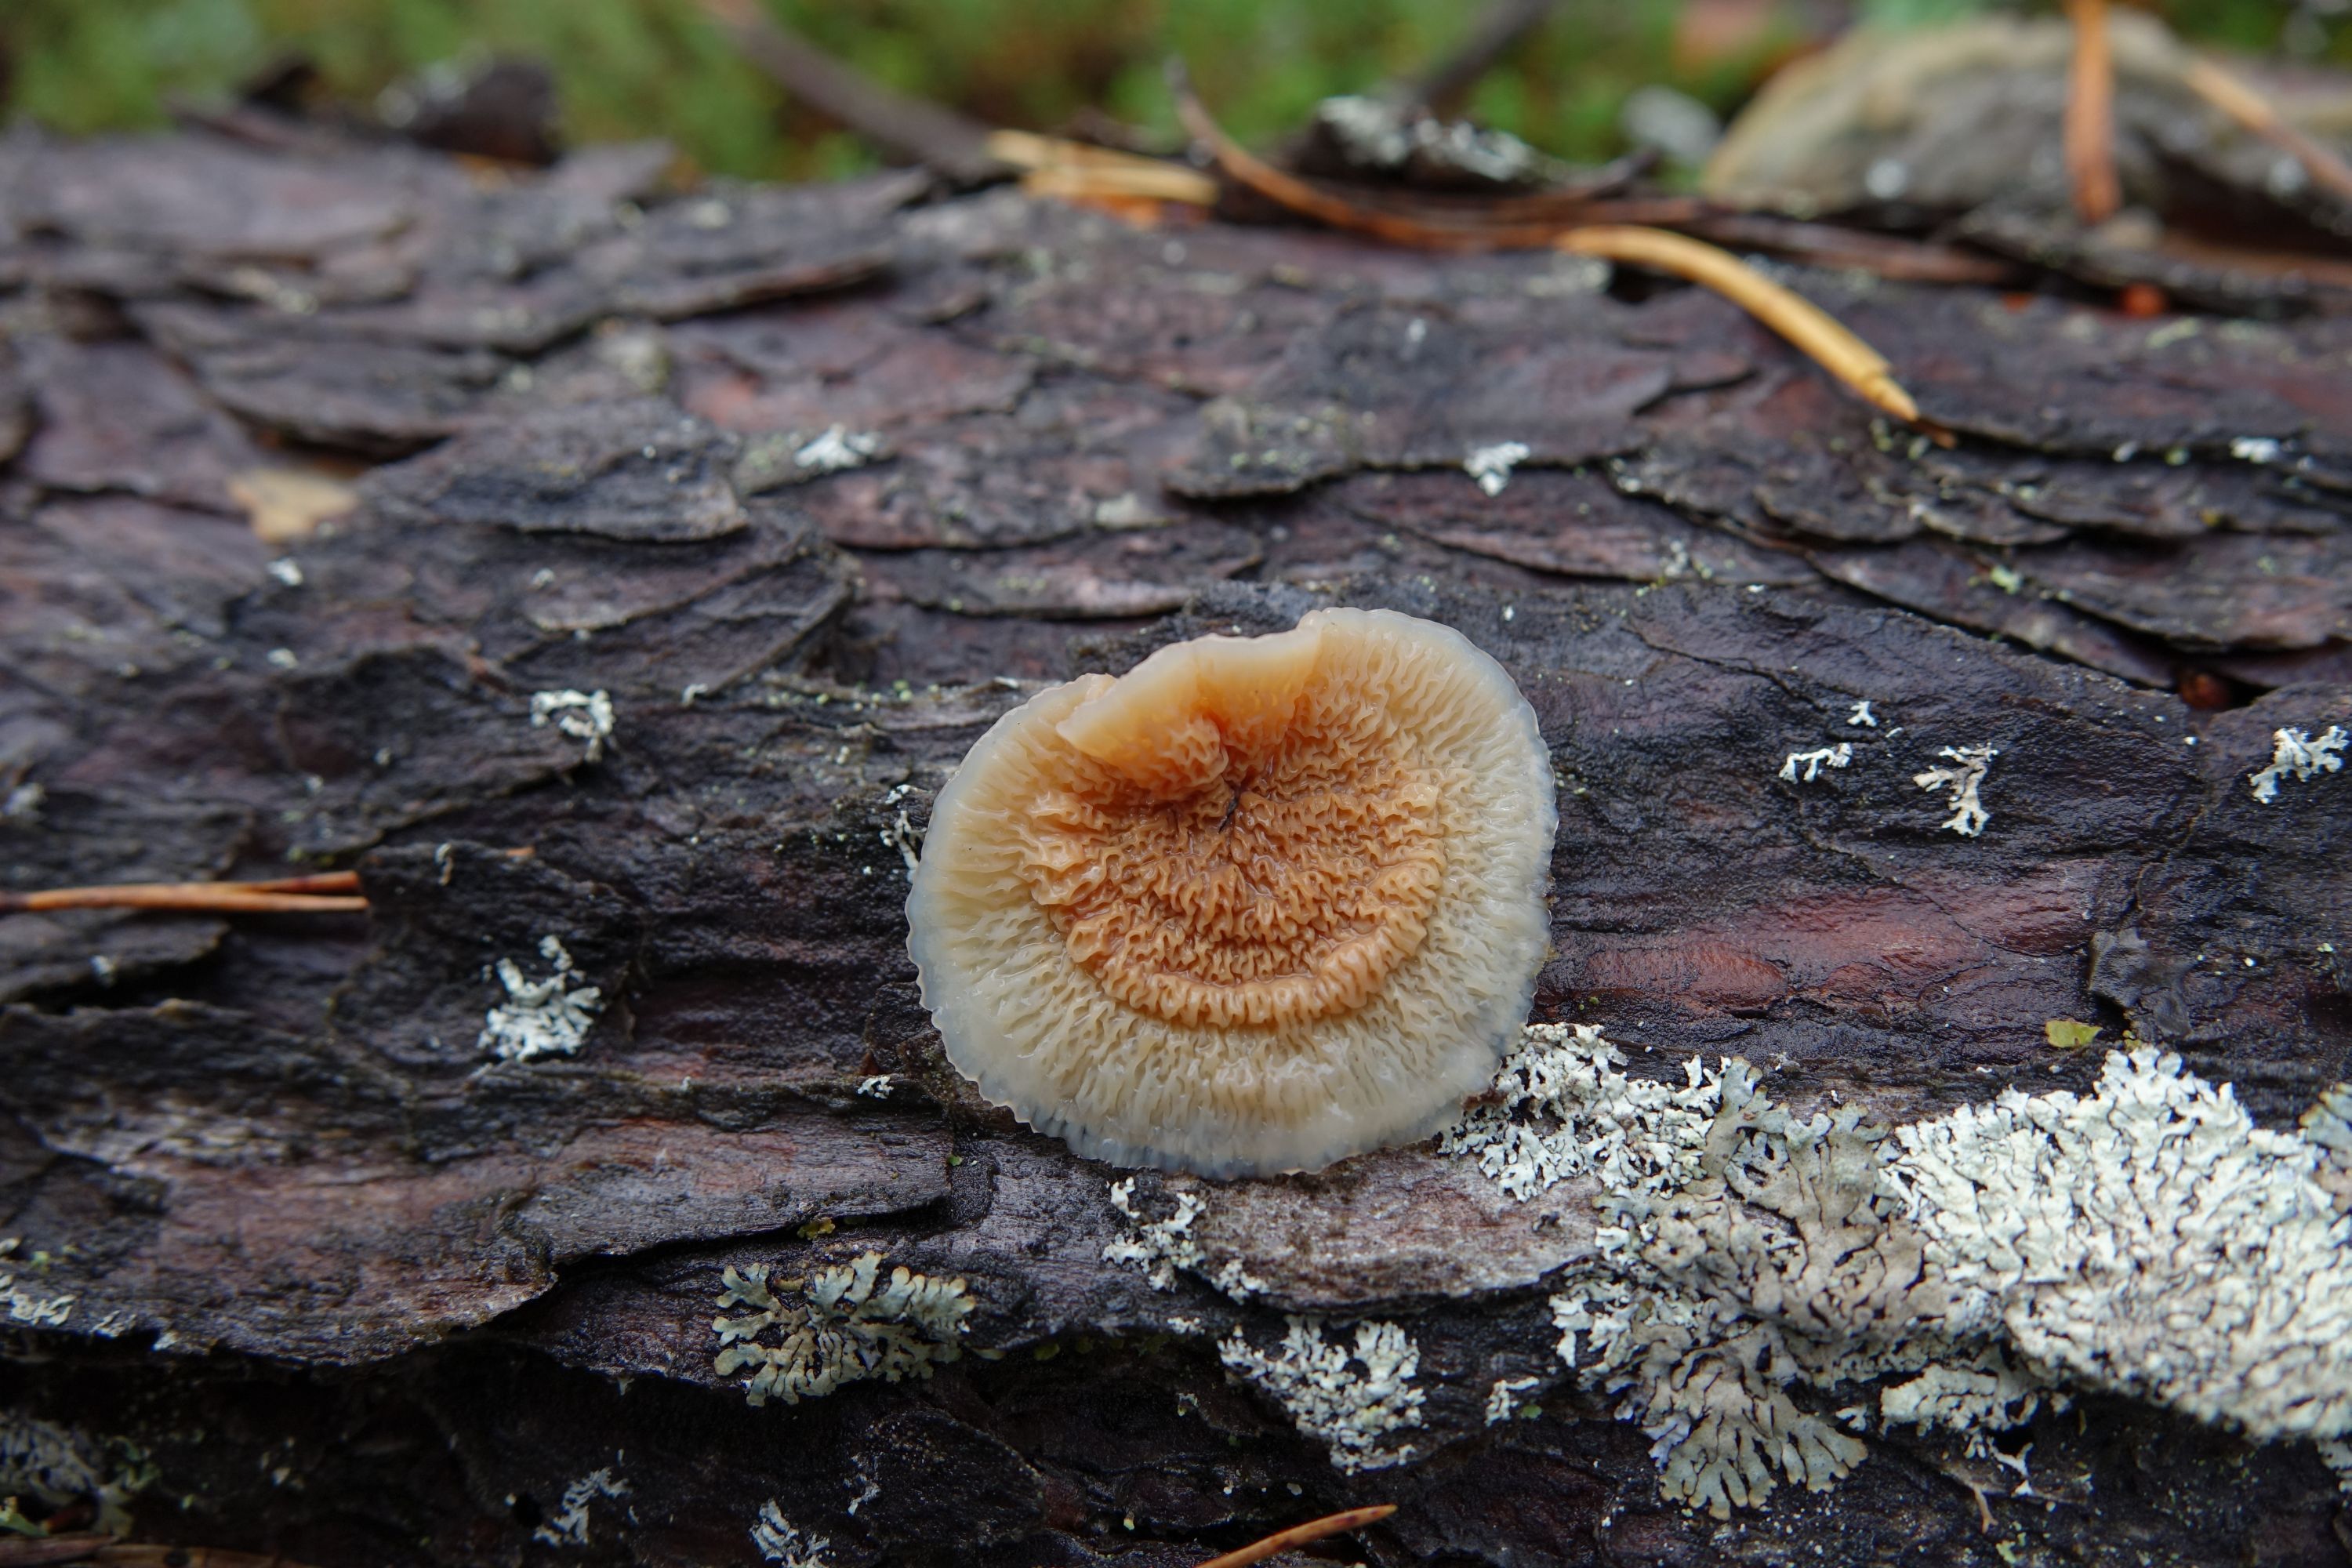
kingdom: Fungi
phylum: Basidiomycota
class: Agaricomycetes
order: Polyporales
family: Meruliaceae
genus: Phlebia
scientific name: Phlebia tremellosa
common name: Jelly rot
